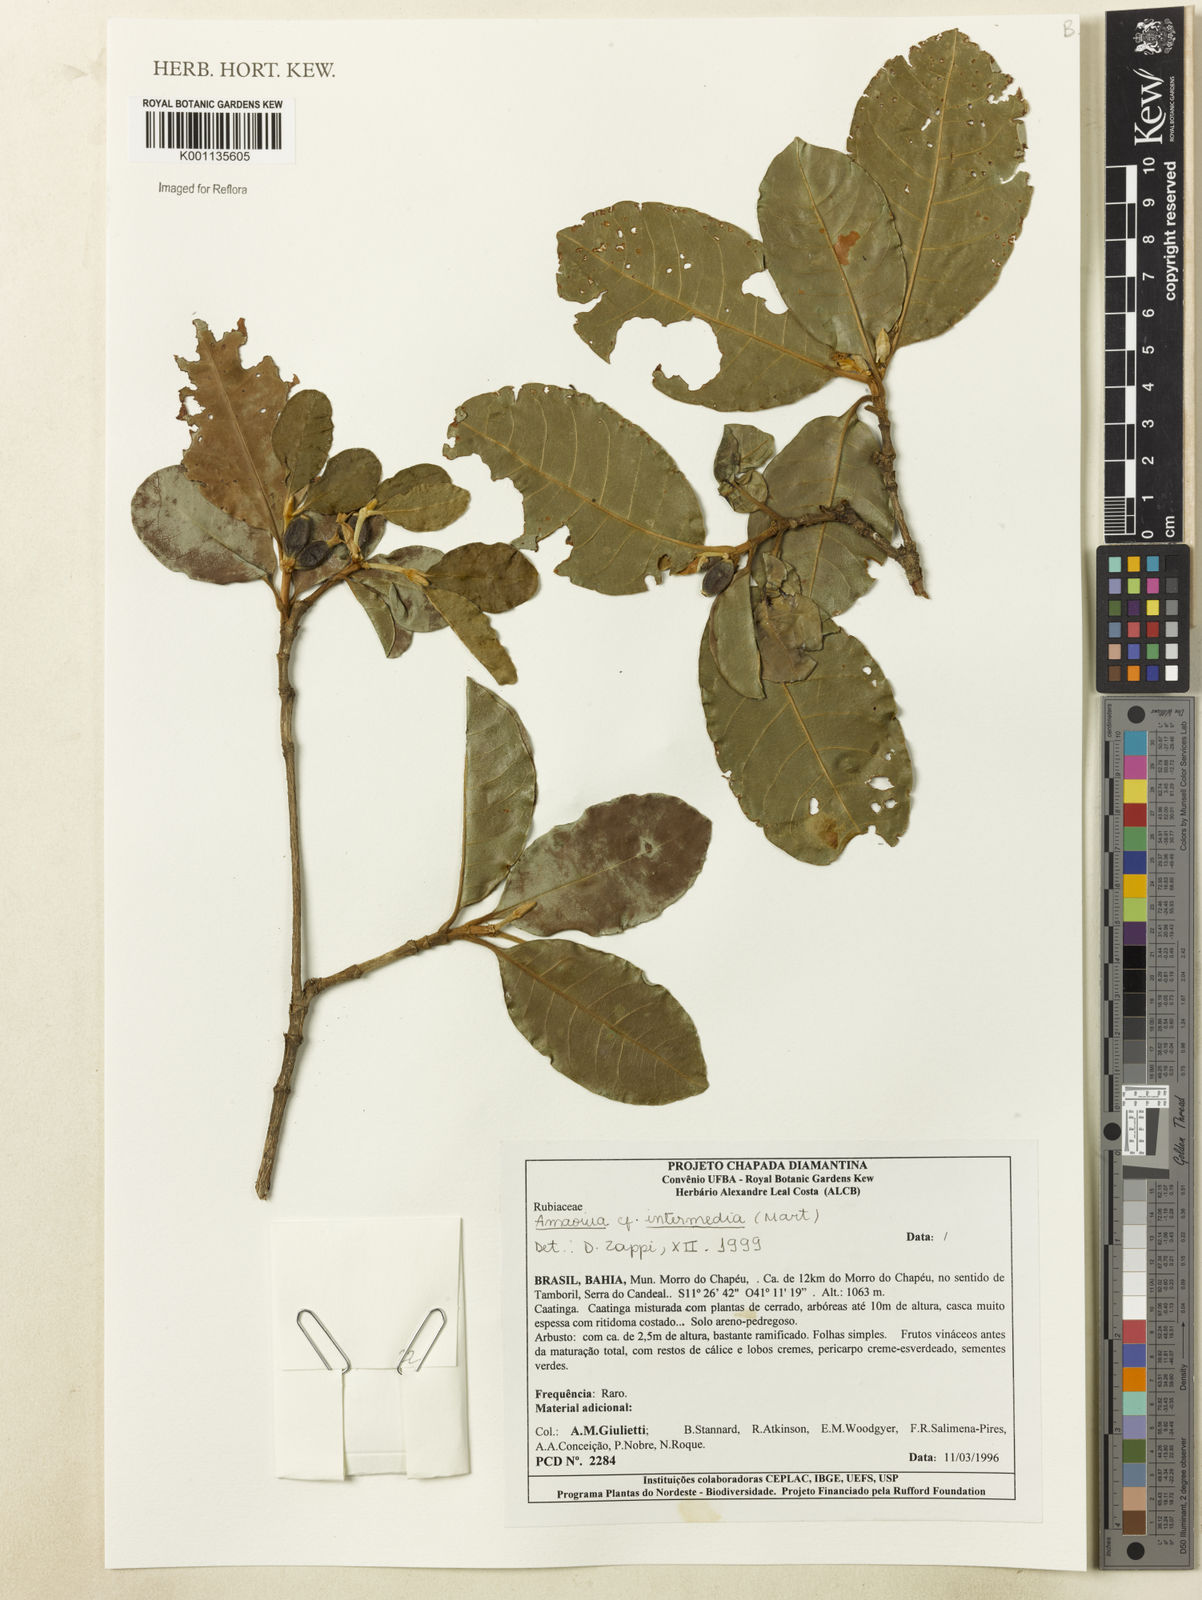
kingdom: Plantae
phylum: Tracheophyta
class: Magnoliopsida
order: Gentianales
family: Rubiaceae
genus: Amaioua
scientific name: Amaioua intermedia
